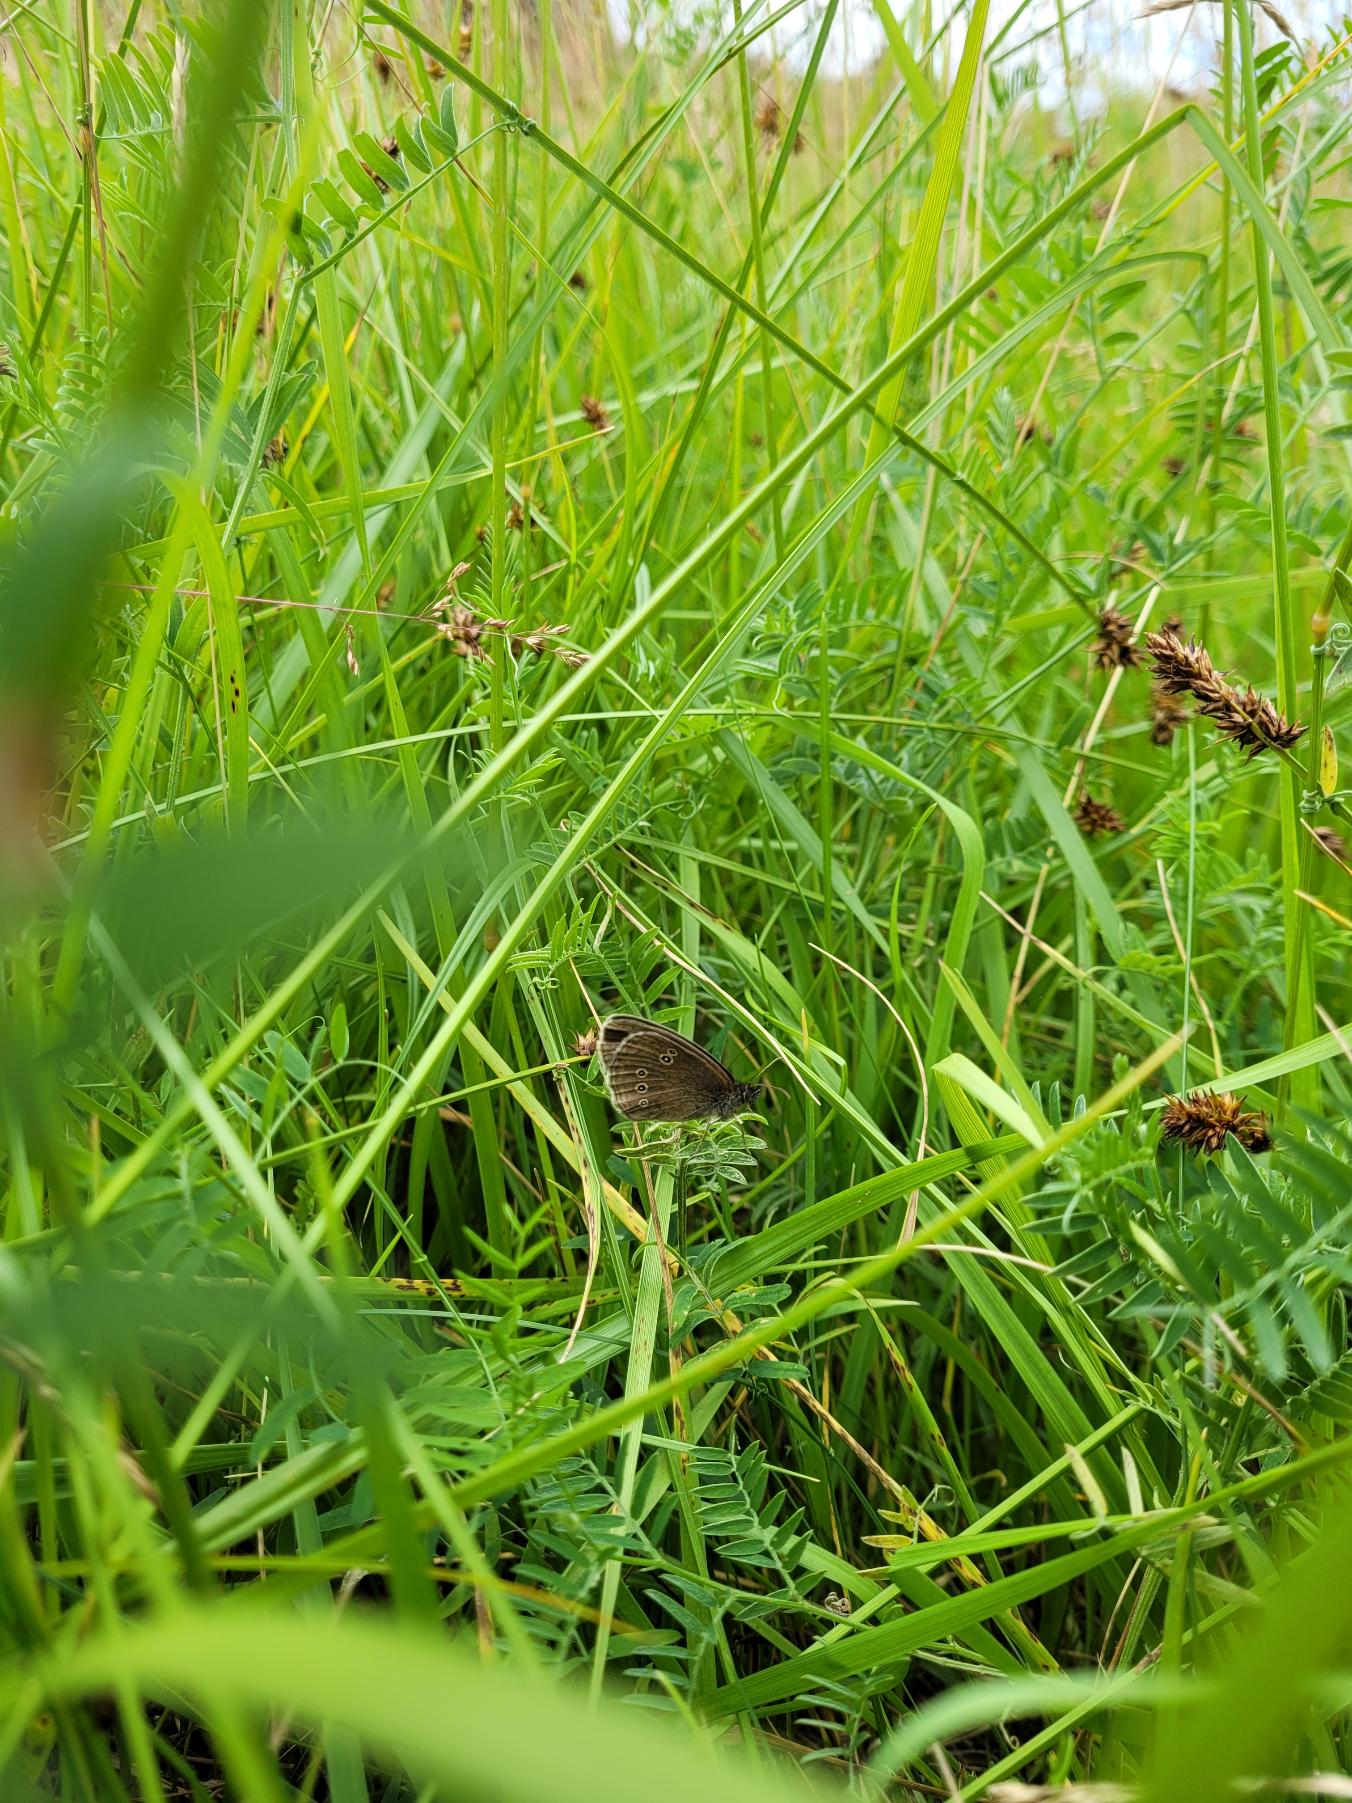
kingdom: Animalia
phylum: Arthropoda
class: Insecta
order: Lepidoptera
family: Nymphalidae
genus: Aphantopus
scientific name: Aphantopus hyperantus
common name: Engrandøje
